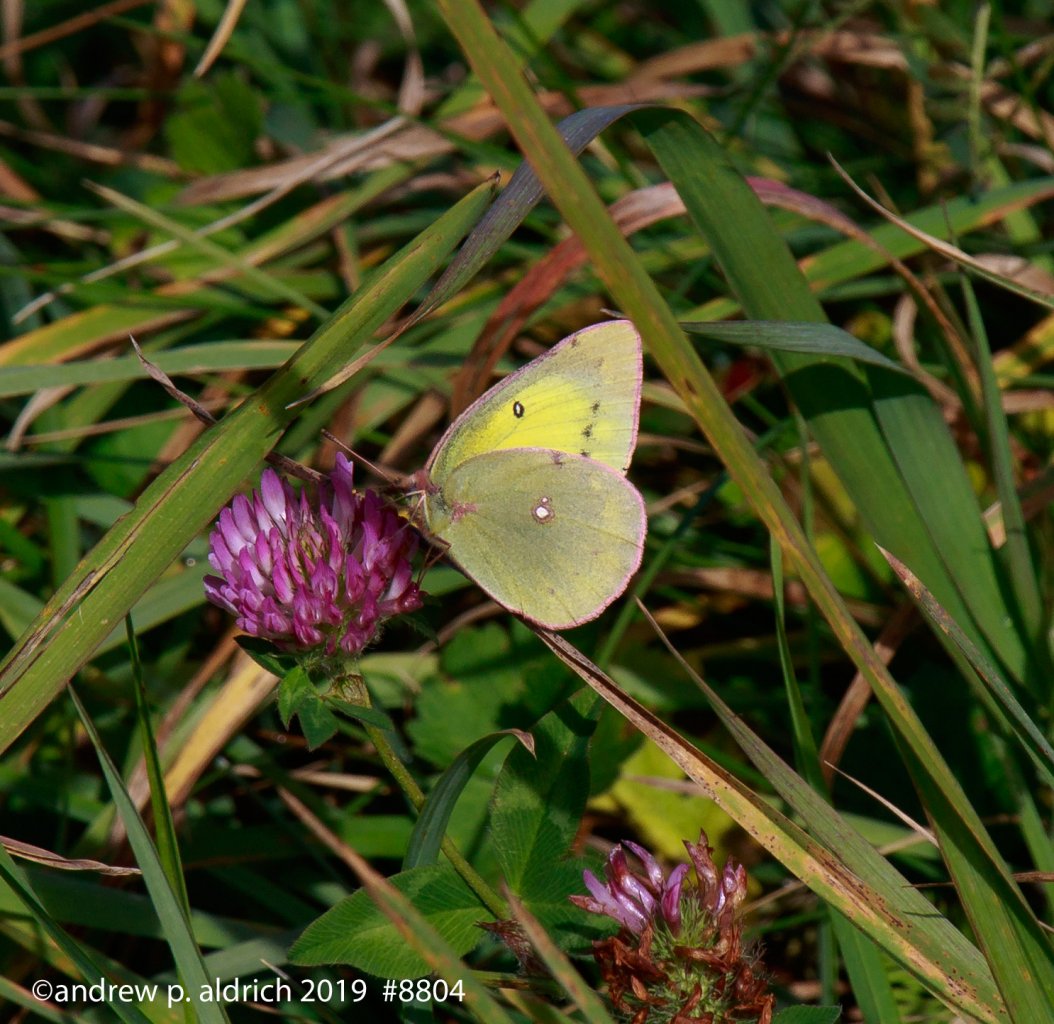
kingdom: Animalia
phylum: Arthropoda
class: Insecta
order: Lepidoptera
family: Pieridae
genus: Colias
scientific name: Colias eurytheme
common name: Orange Sulphur
